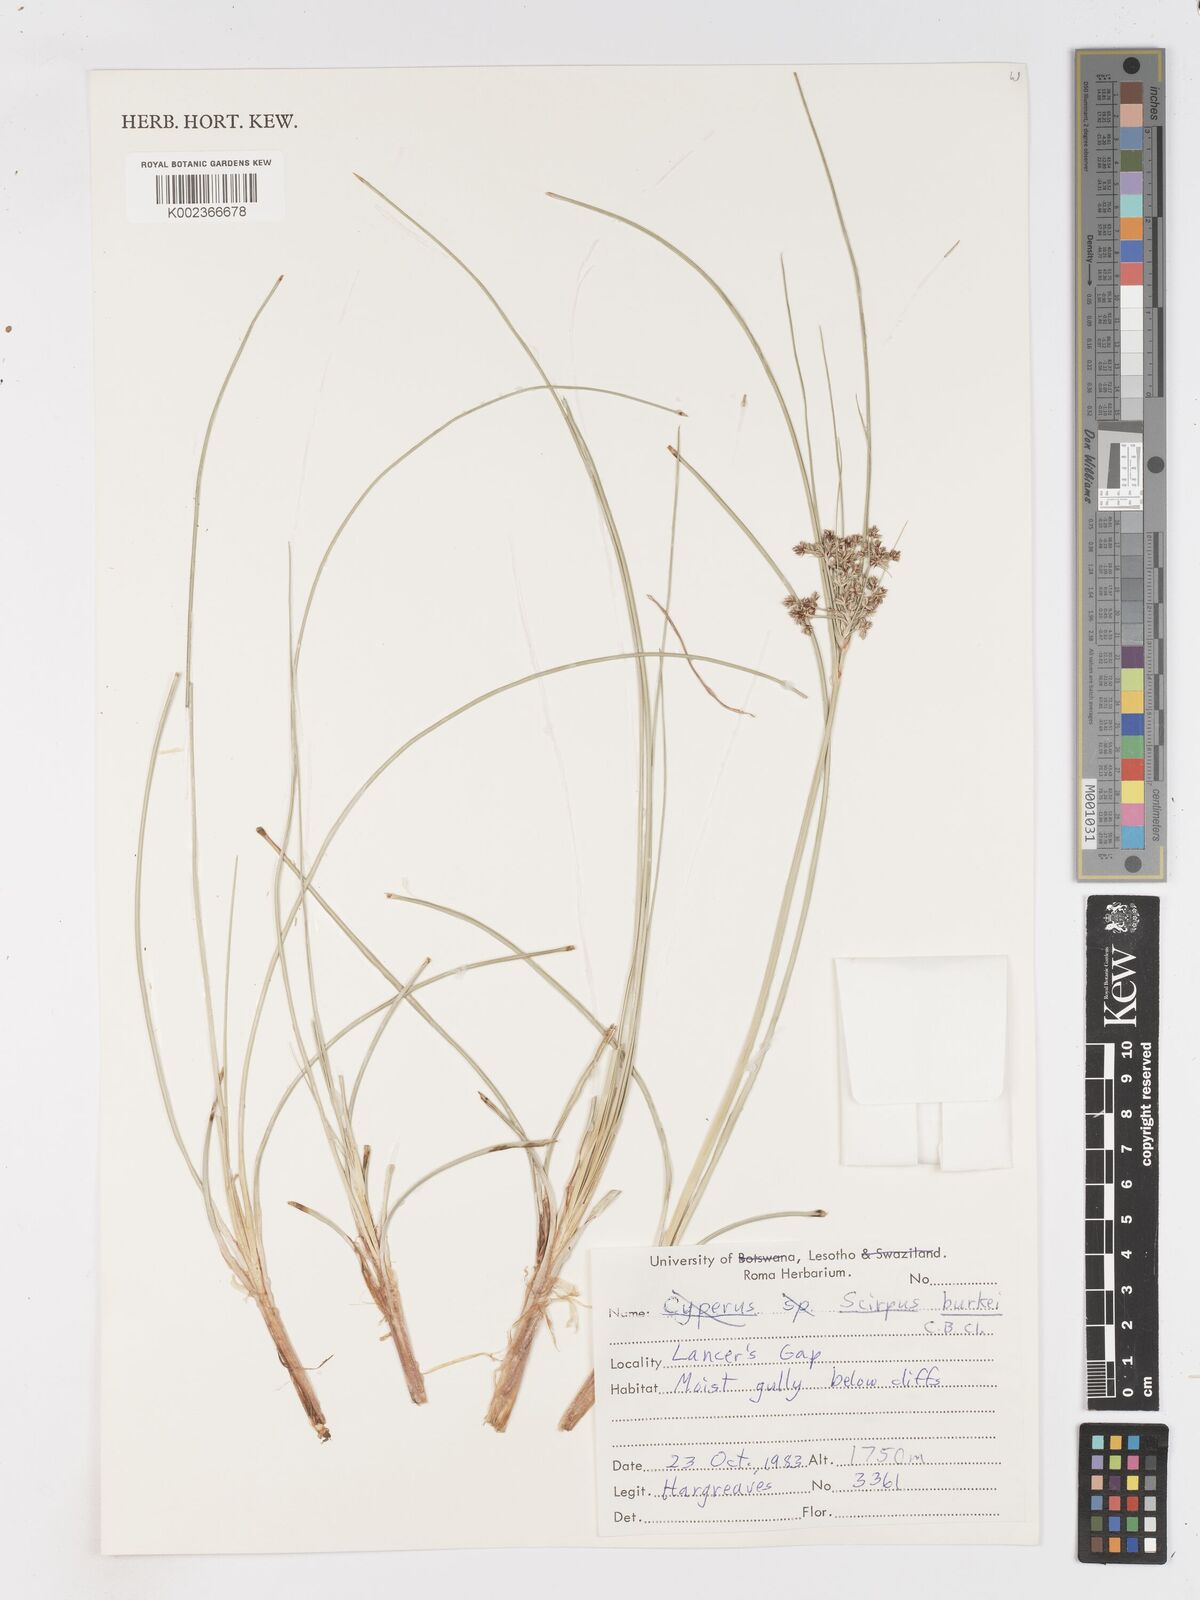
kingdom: Plantae
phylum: Tracheophyta
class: Liliopsida
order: Poales
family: Cyperaceae
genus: Scirpoides
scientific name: Scirpoides burkei
